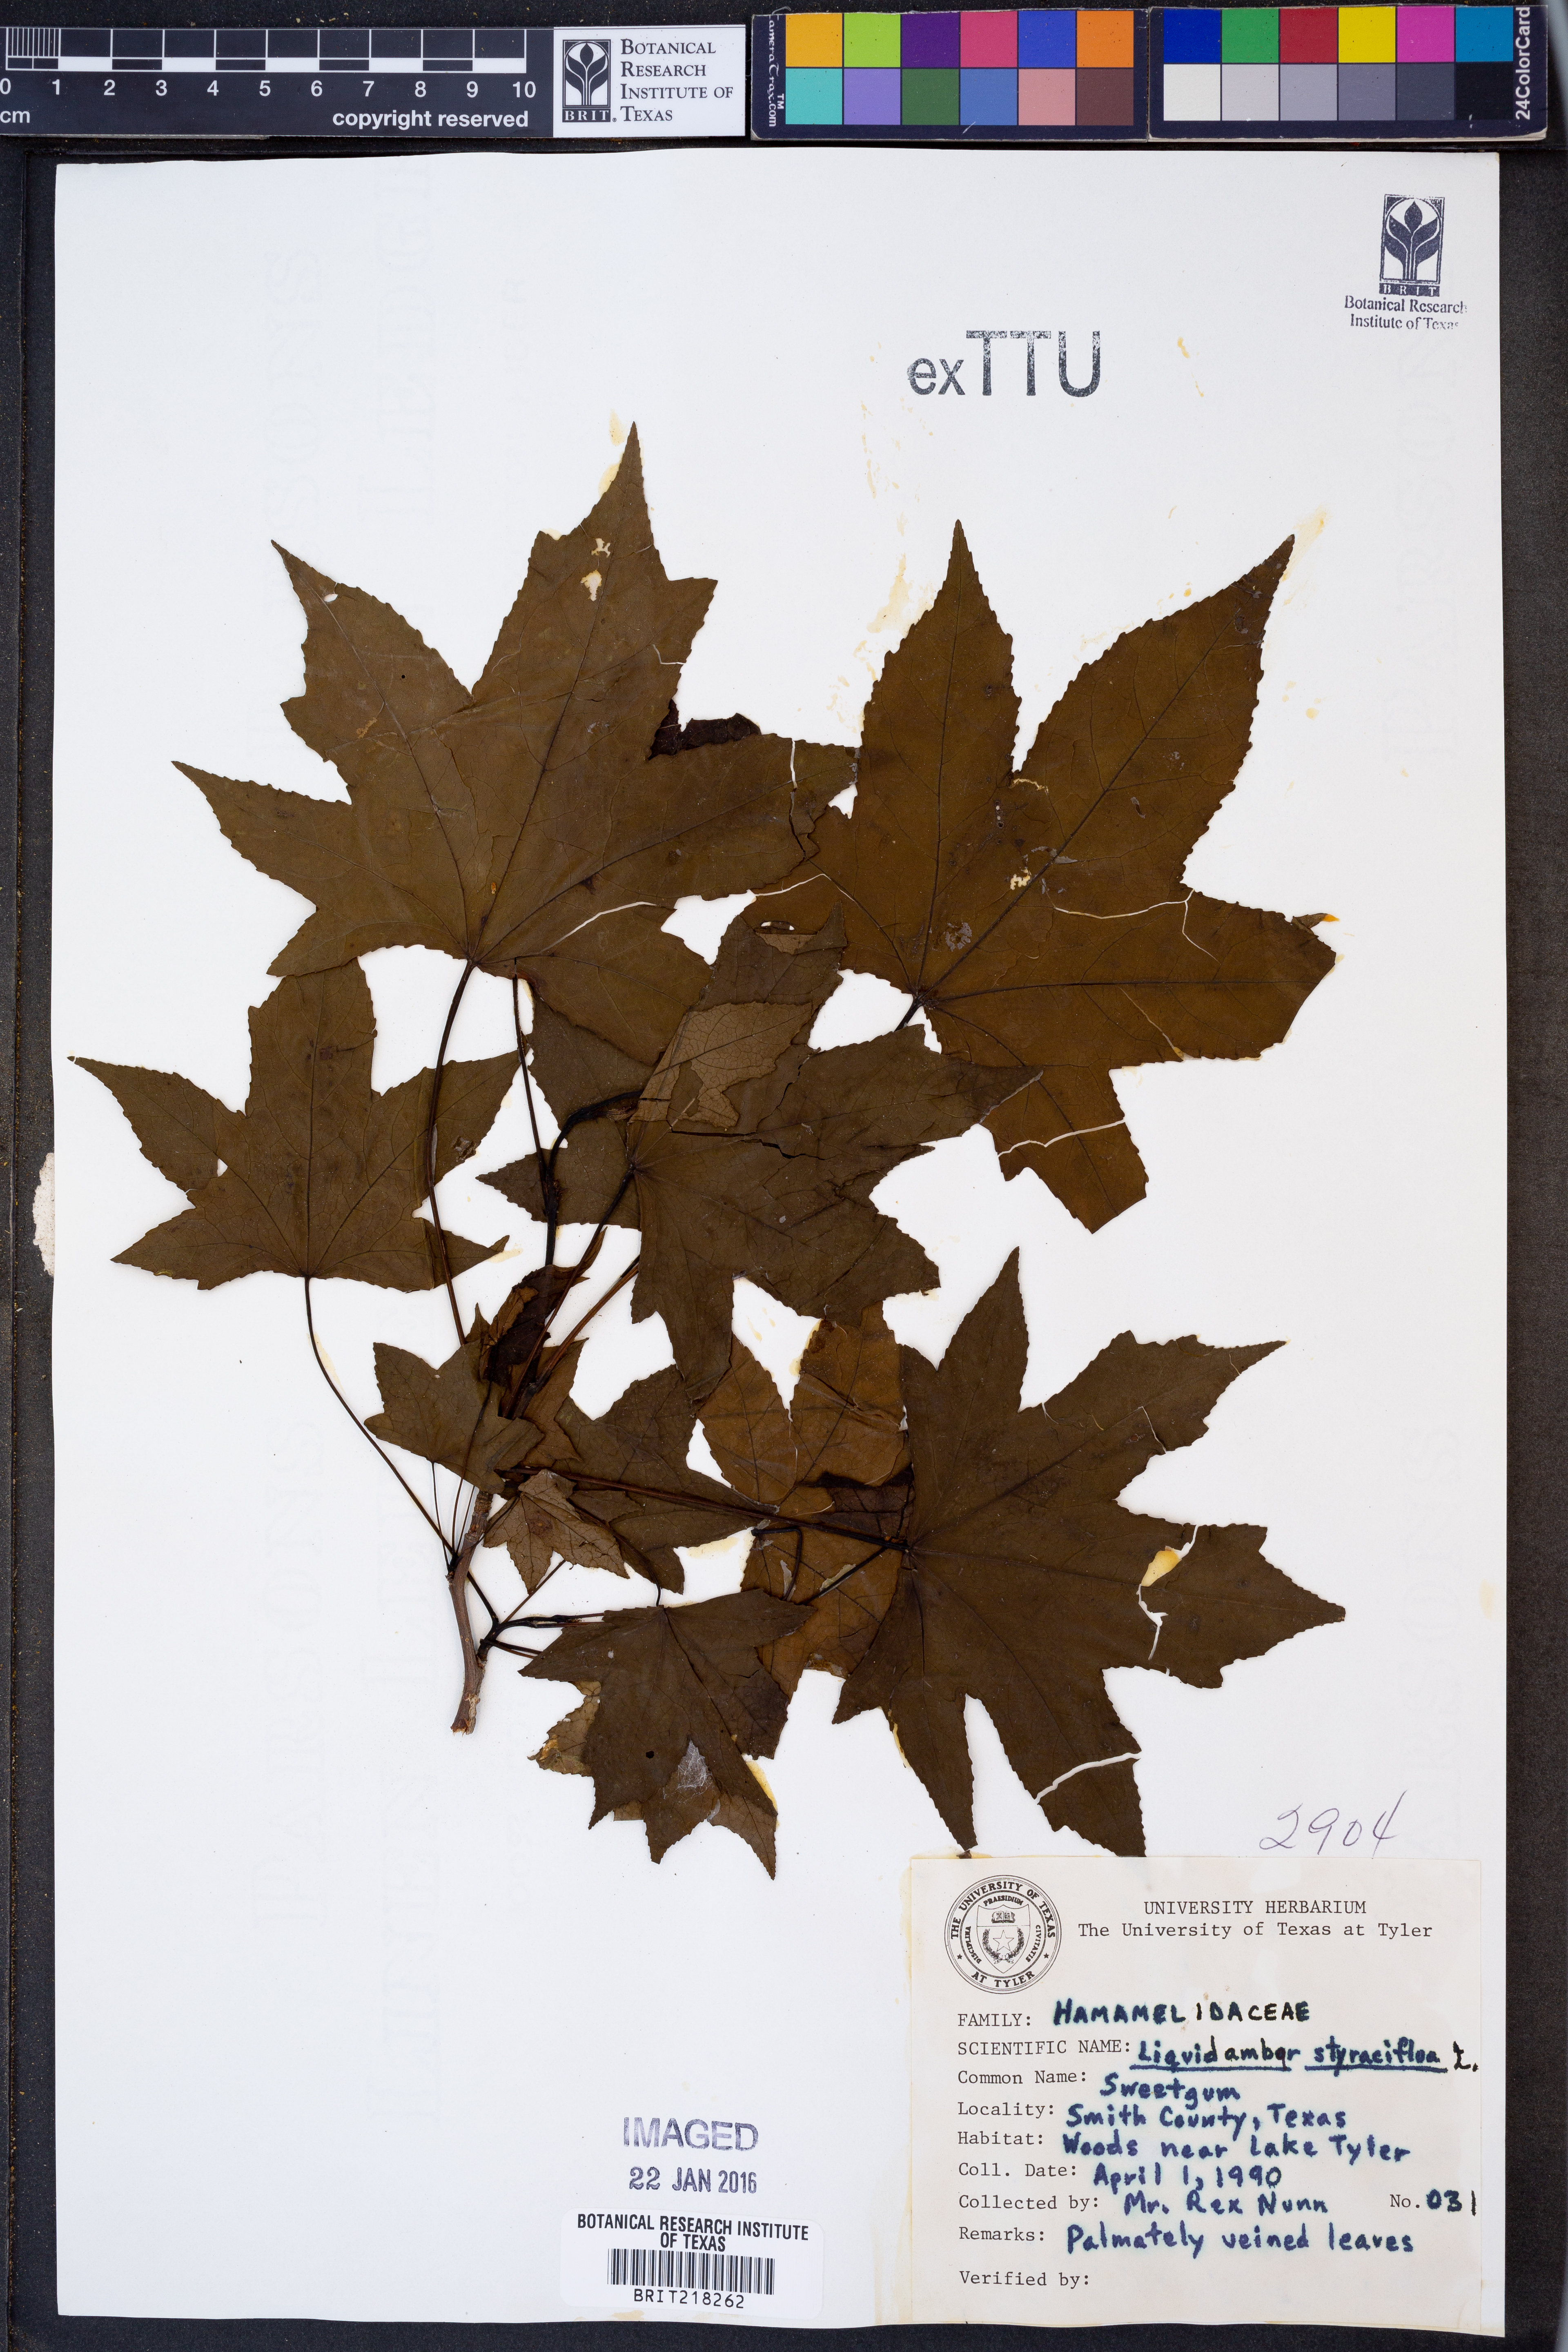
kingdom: Plantae
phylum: Tracheophyta
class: Magnoliopsida
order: Saxifragales
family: Altingiaceae
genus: Liquidambar
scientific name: Liquidambar styraciflua
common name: Sweet gum
